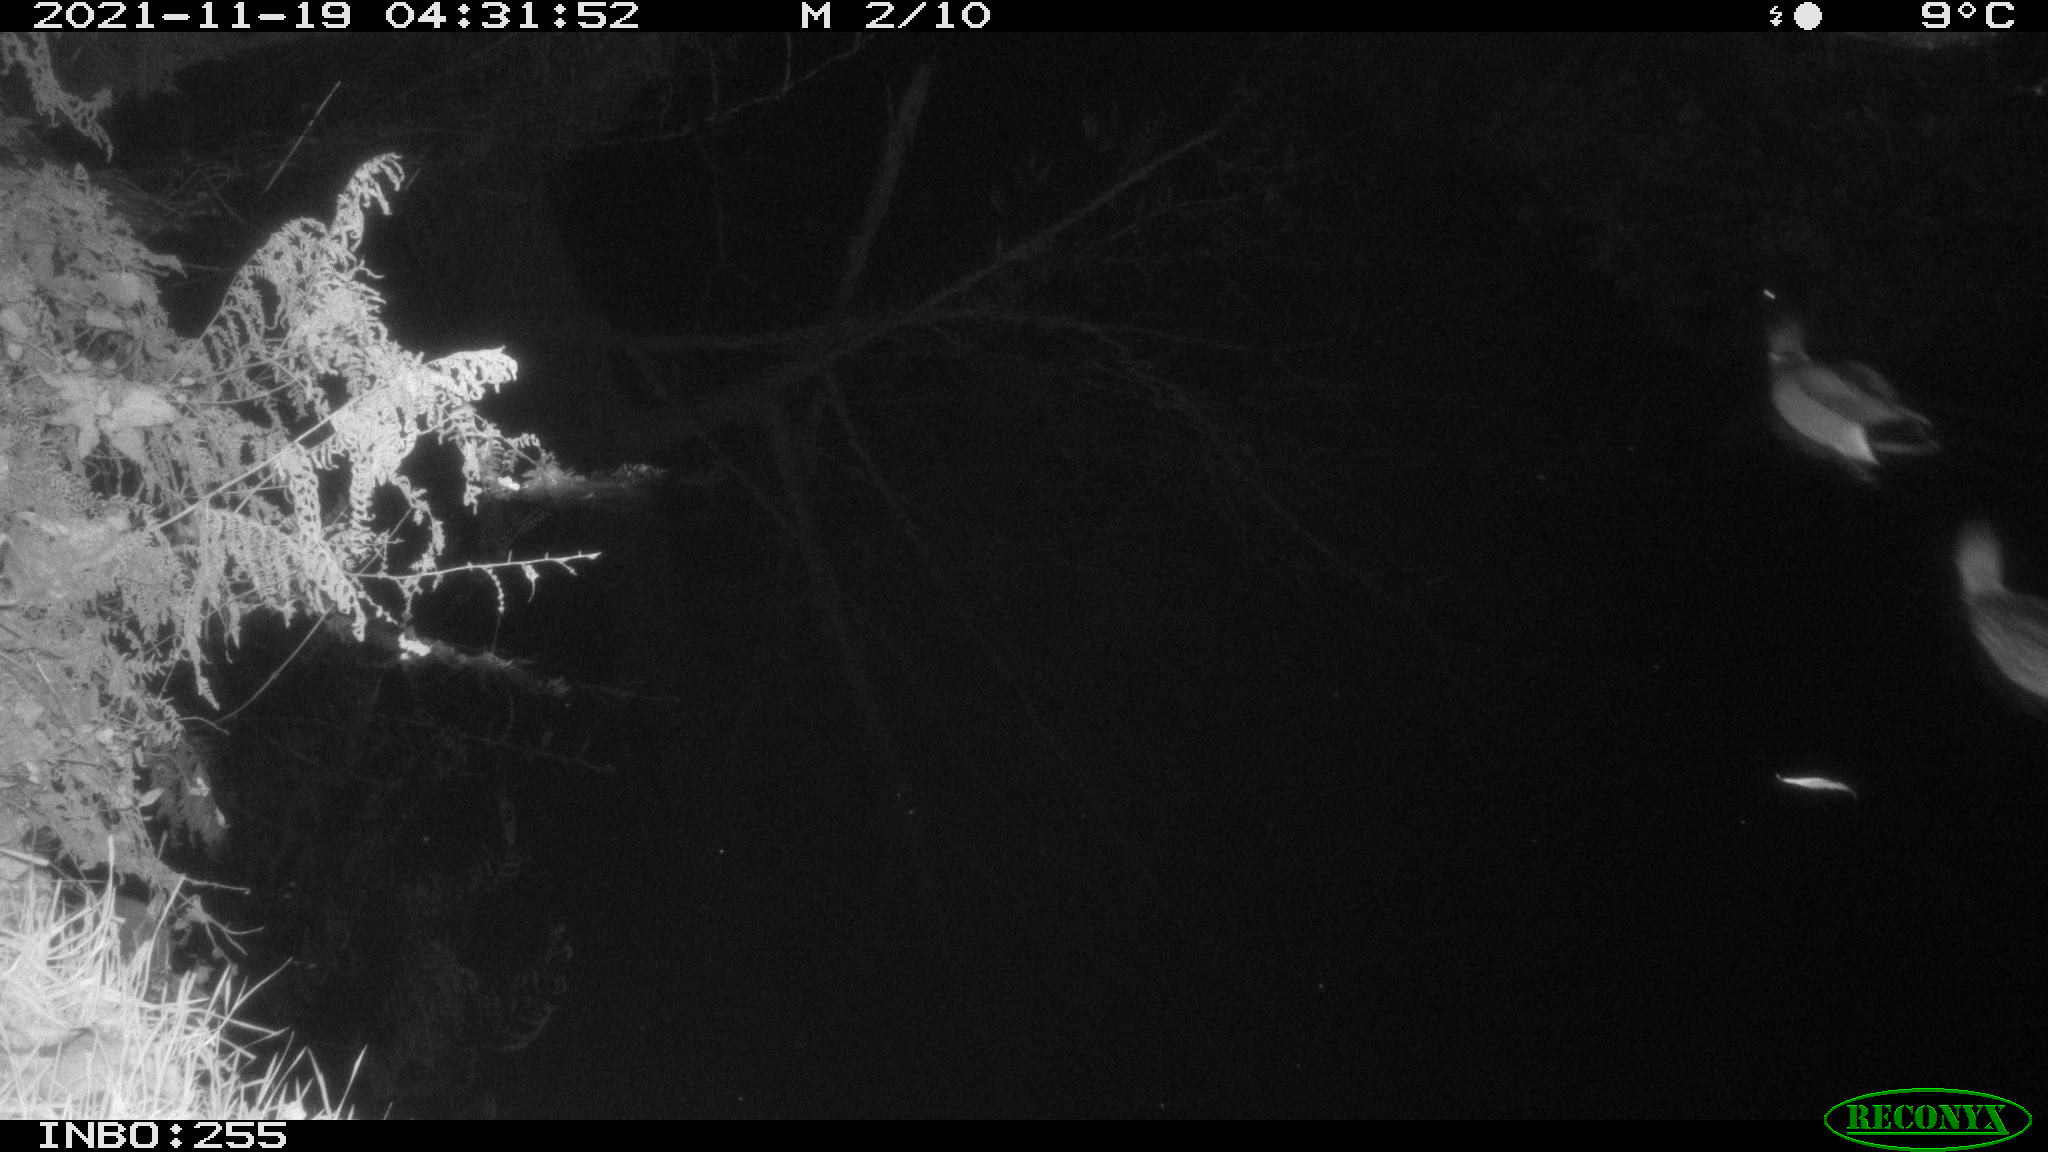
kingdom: Animalia
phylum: Chordata
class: Aves
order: Anseriformes
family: Anatidae
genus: Anas
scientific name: Anas platyrhynchos
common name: Mallard
